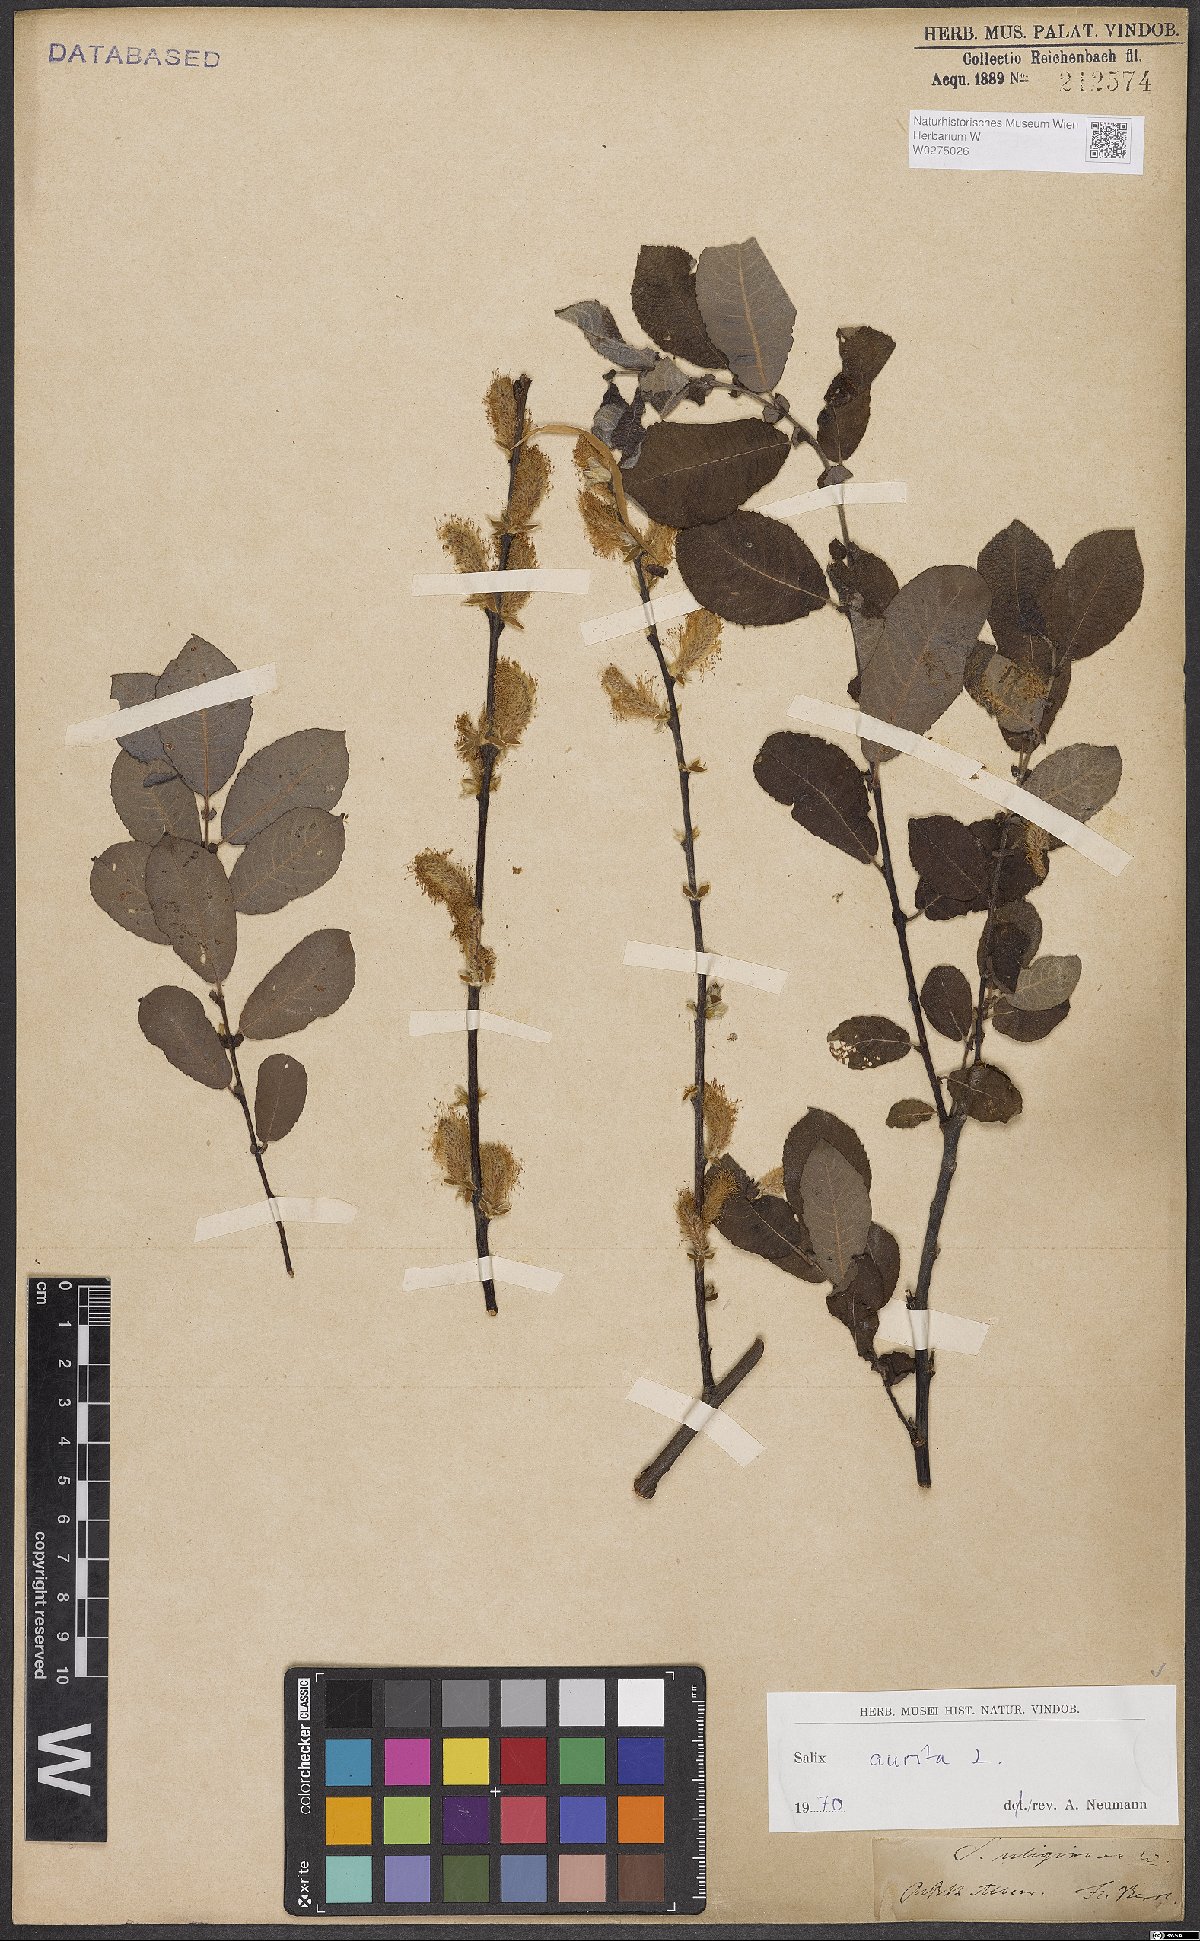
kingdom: Plantae
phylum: Tracheophyta
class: Magnoliopsida
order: Malpighiales
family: Salicaceae
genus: Salix
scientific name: Salix aurita
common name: Eared willow
